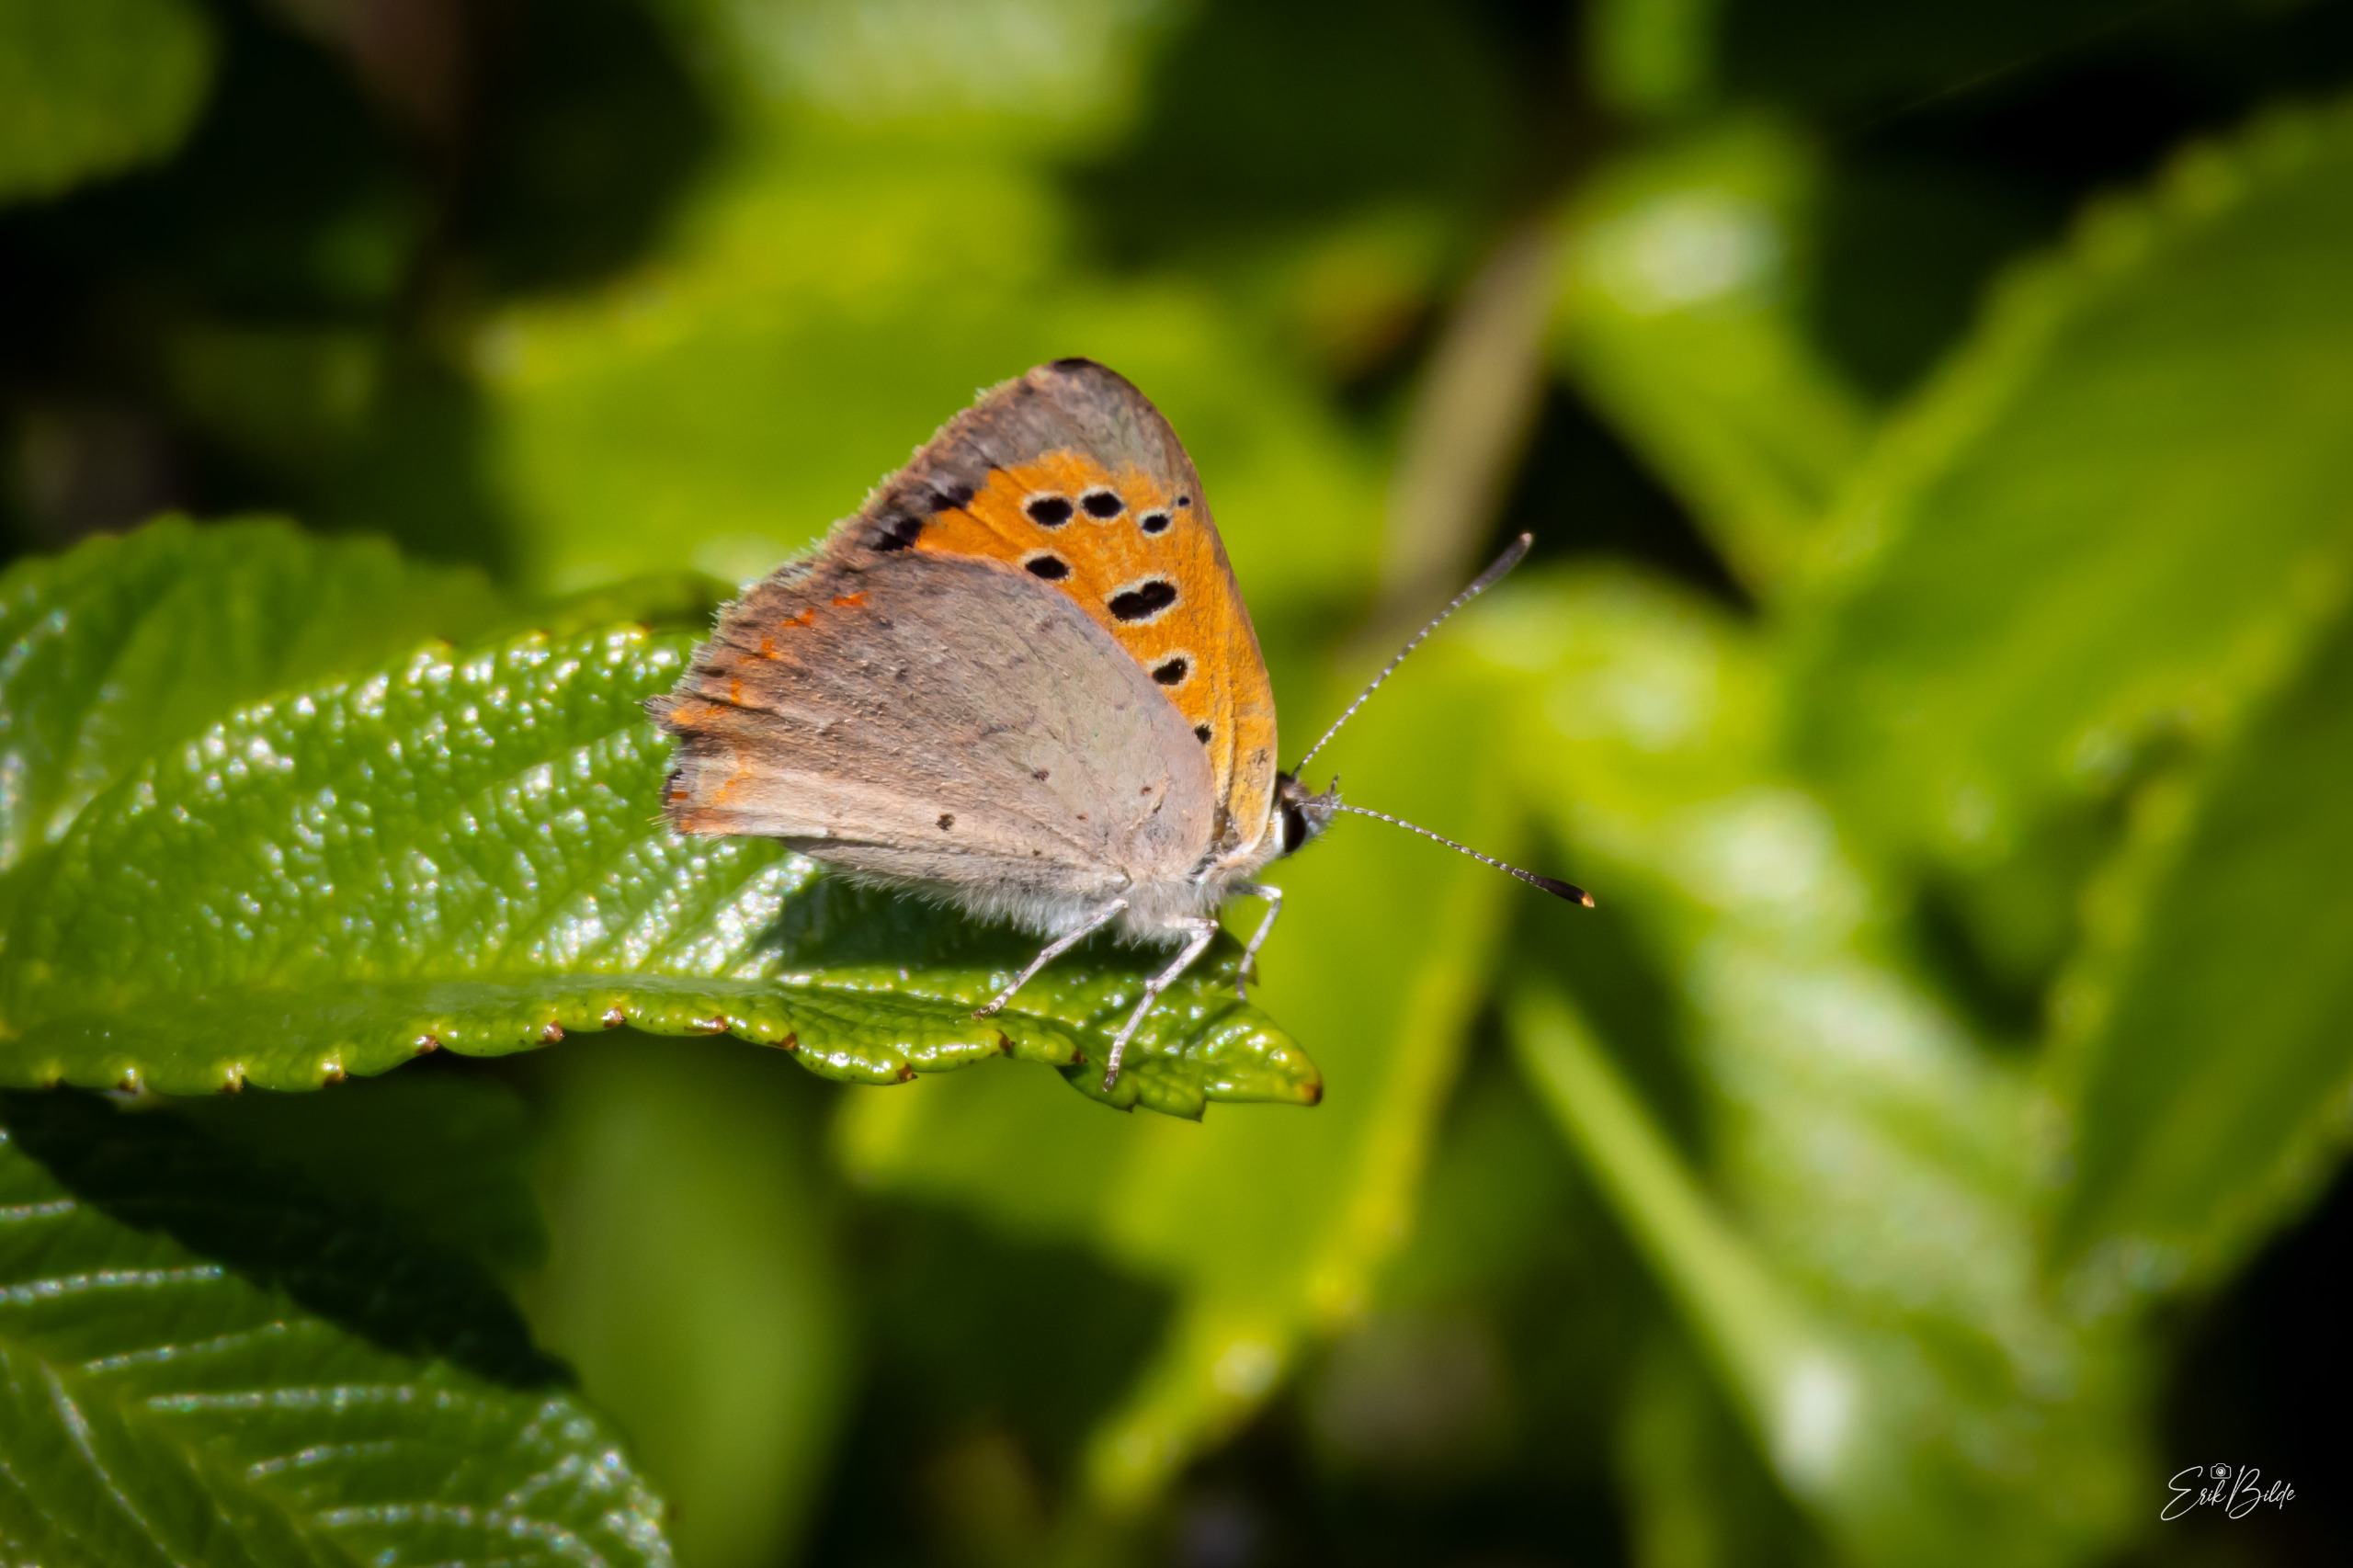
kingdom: Animalia
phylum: Arthropoda
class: Insecta
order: Lepidoptera
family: Lycaenidae
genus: Lycaena
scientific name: Lycaena phlaeas
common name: Lille ildfugl
